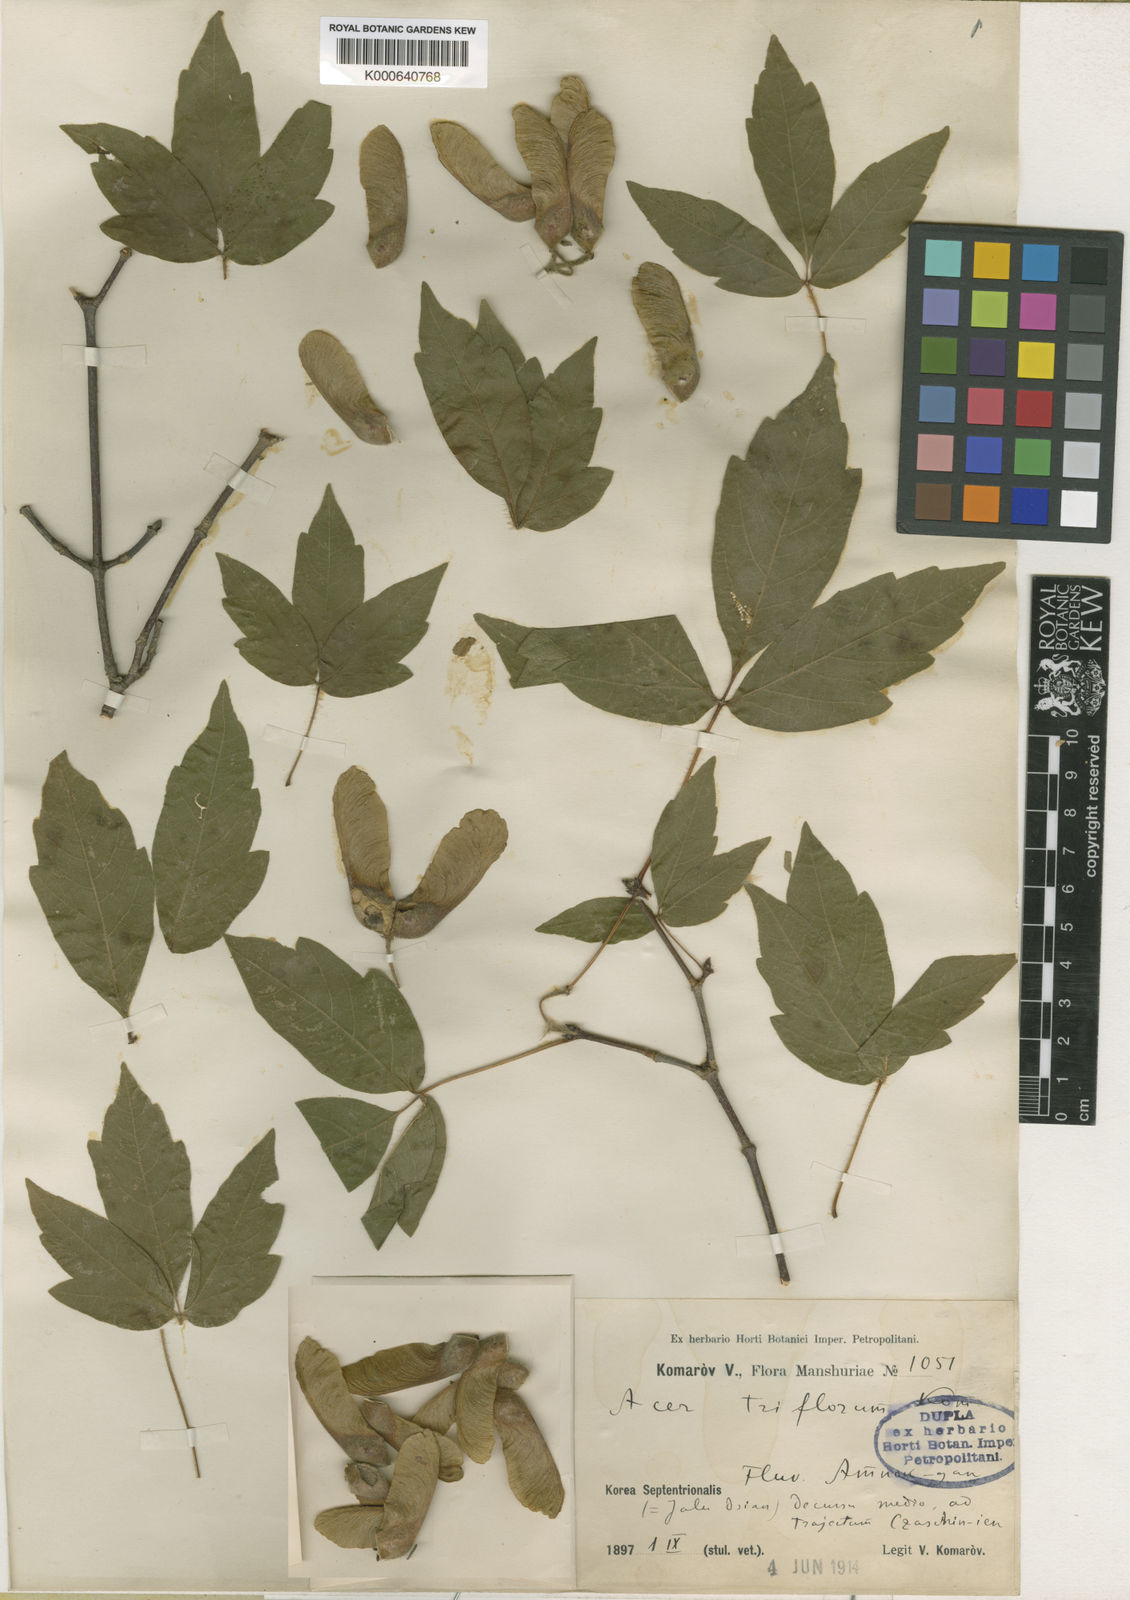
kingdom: Plantae
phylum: Tracheophyta
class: Magnoliopsida
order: Sapindales
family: Sapindaceae
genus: Acer
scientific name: Acer triflorum
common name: Three-flower maple
